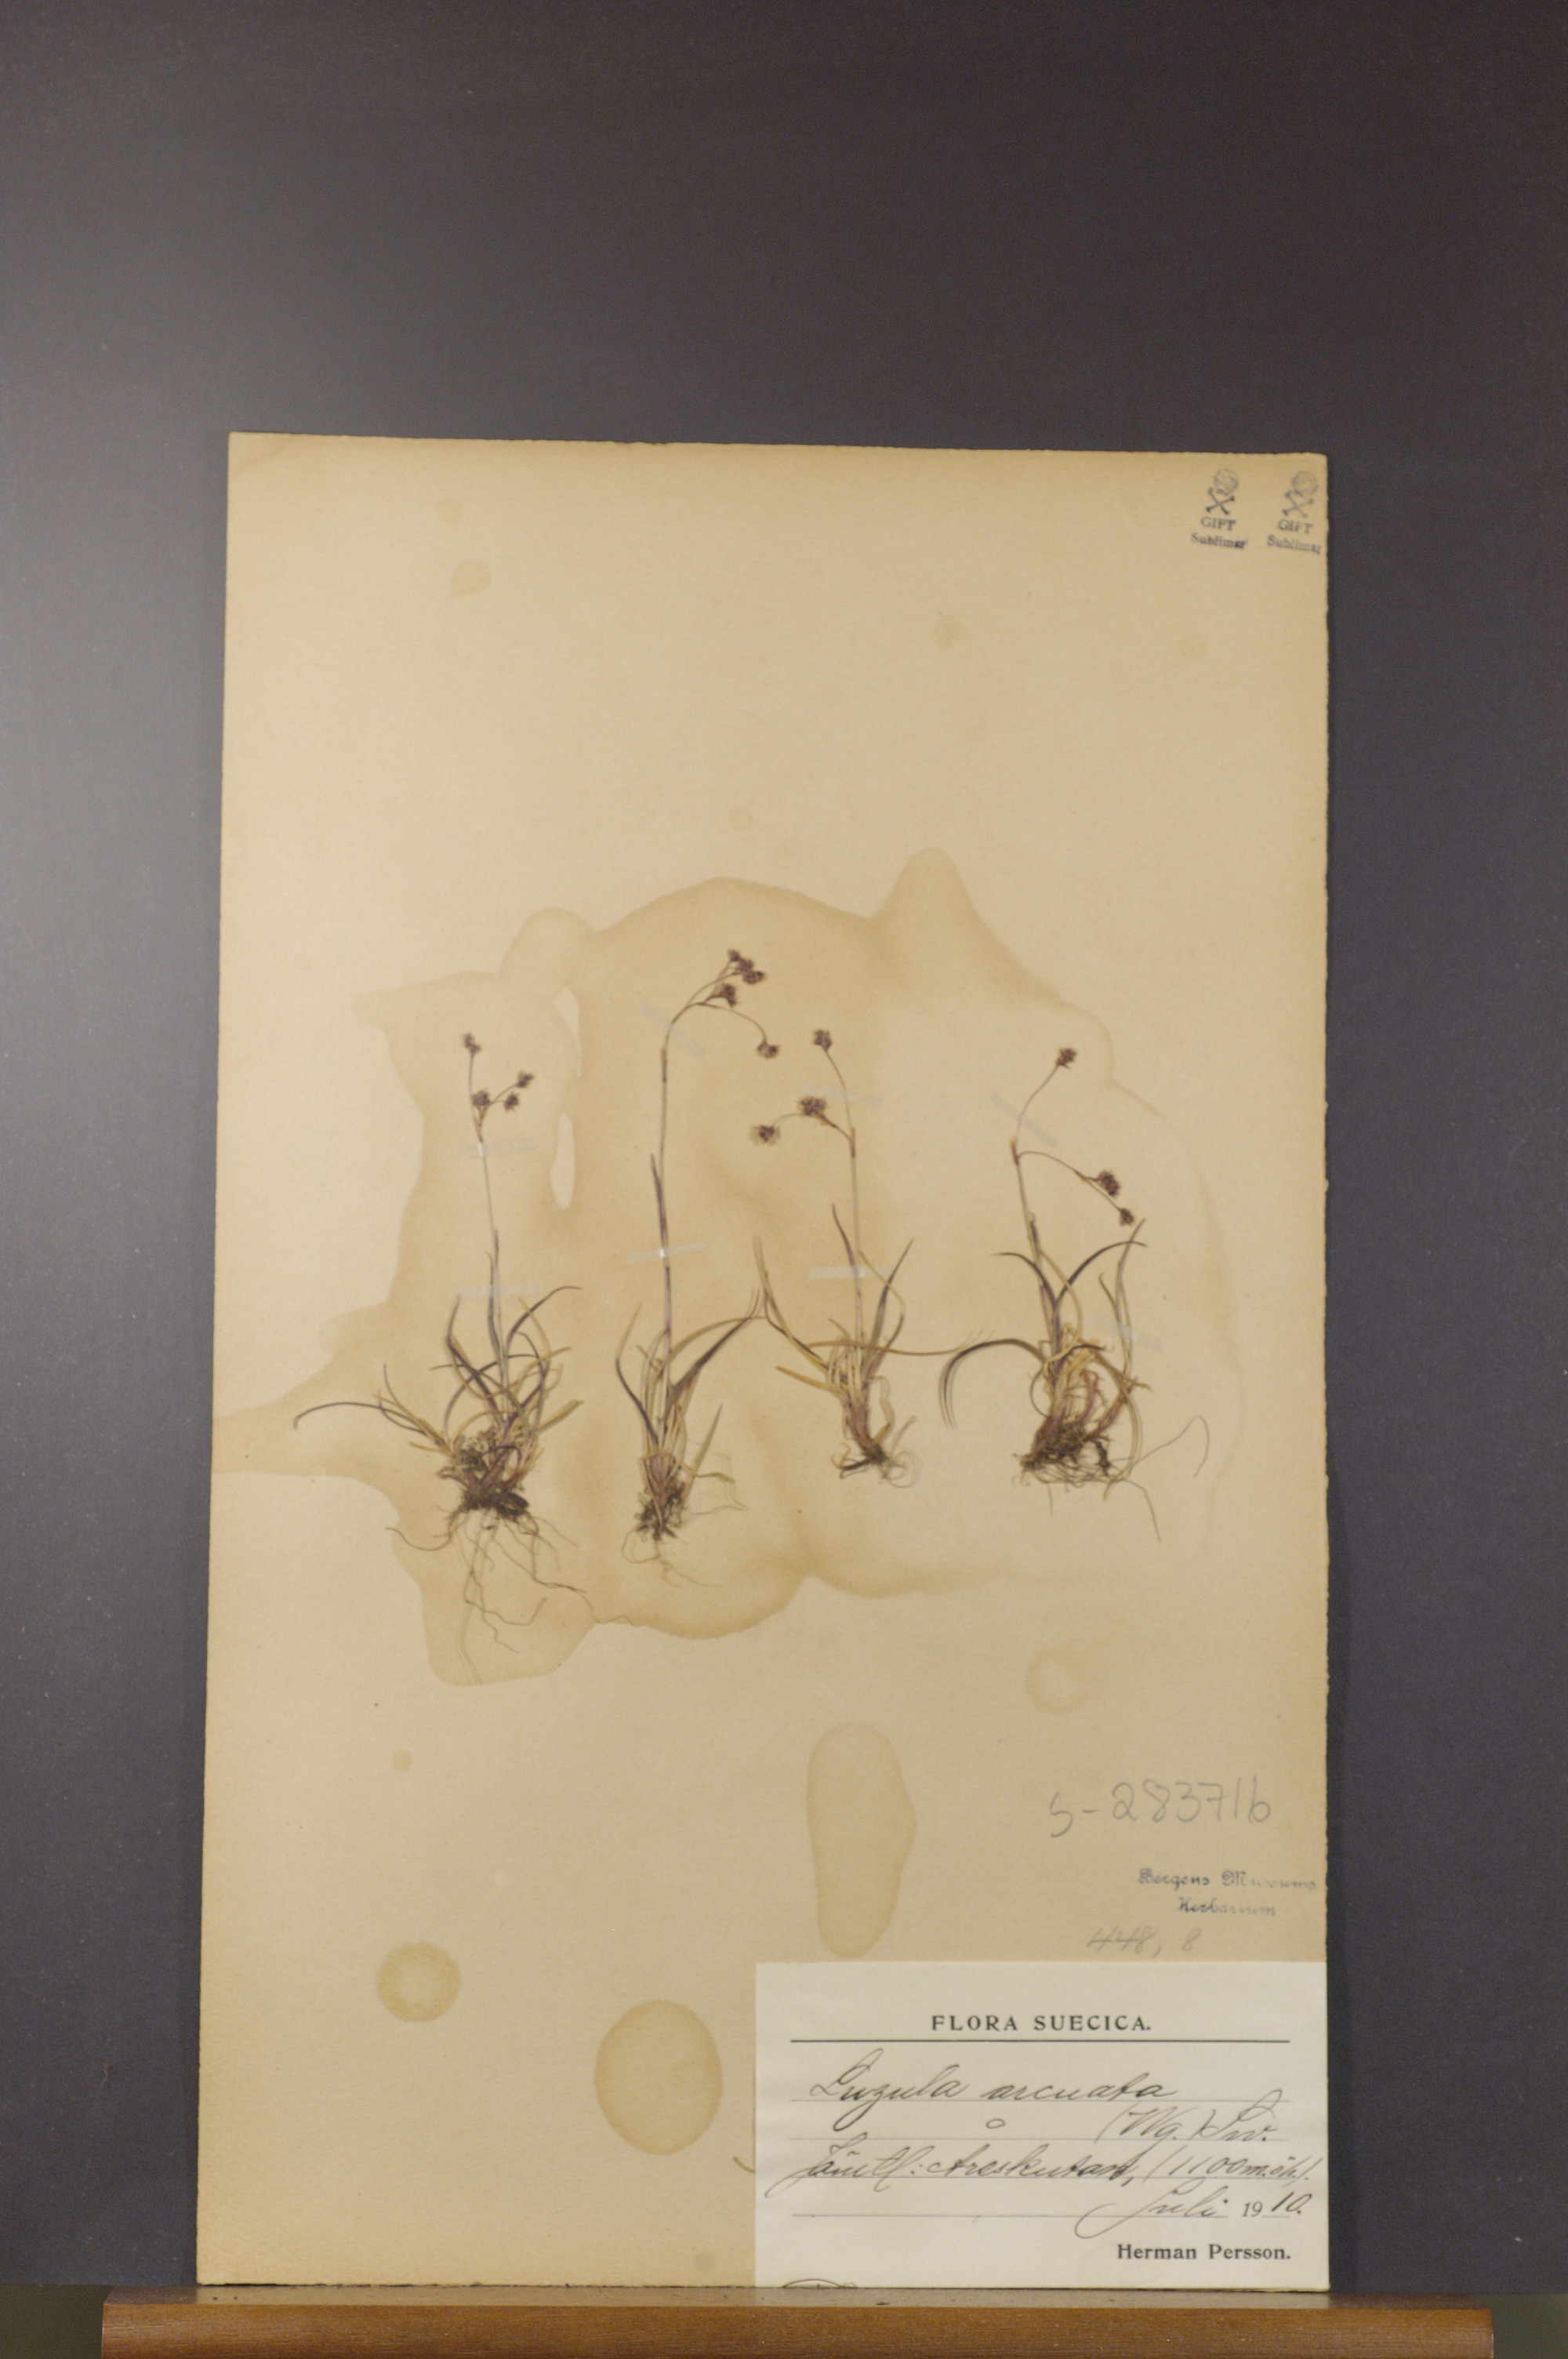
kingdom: Plantae
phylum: Tracheophyta
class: Liliopsida
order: Poales
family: Juncaceae
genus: Luzula
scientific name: Luzula arcuata
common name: Curved wood-rush
